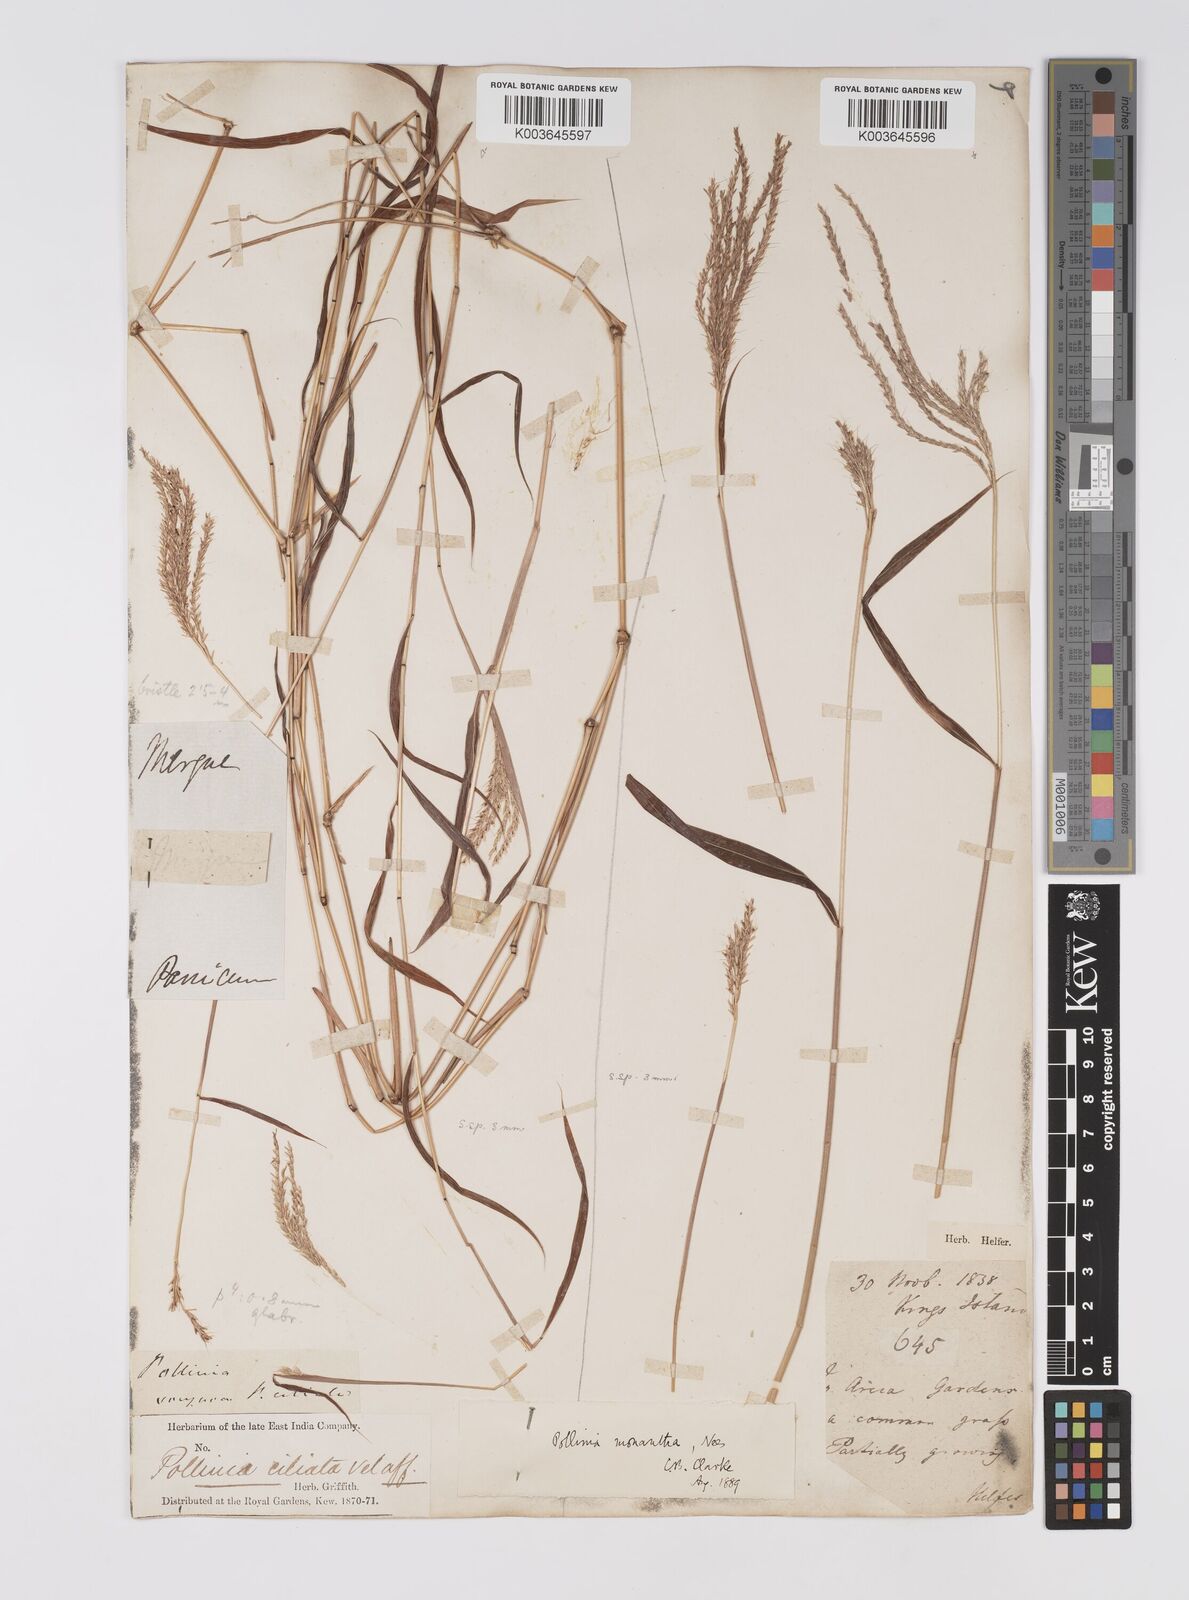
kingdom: Plantae
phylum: Tracheophyta
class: Liliopsida
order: Poales
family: Poaceae
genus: Microstegium
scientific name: Microstegium fasciculatum
